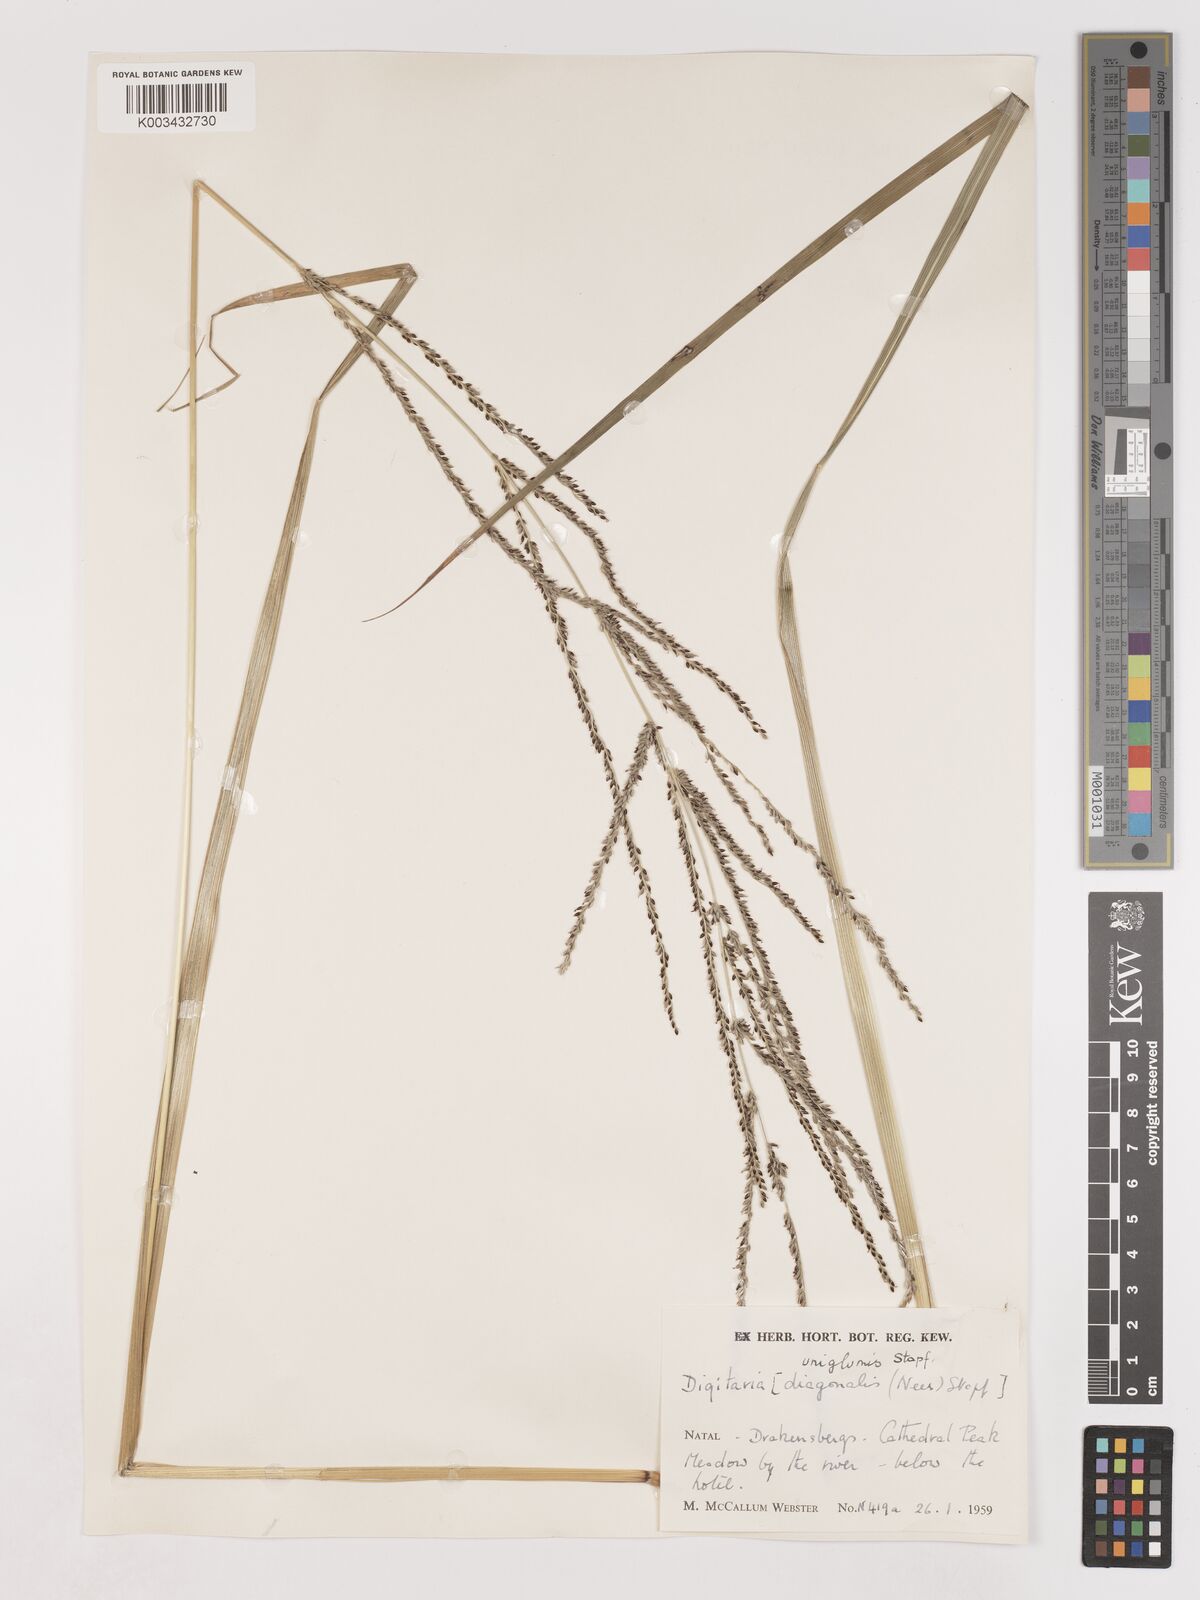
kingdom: Plantae
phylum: Tracheophyta
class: Liliopsida
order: Poales
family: Poaceae
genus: Digitaria
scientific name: Digitaria diagonalis
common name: Brown-seed finger grass
